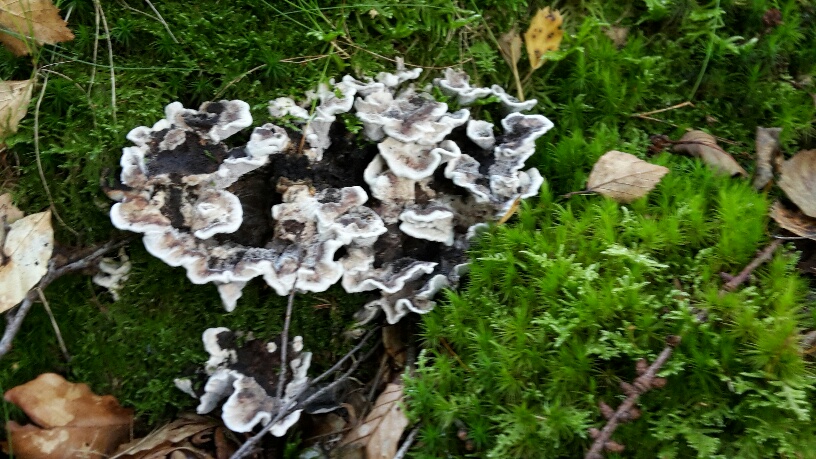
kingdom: Fungi
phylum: Basidiomycota
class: Agaricomycetes
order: Thelephorales
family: Thelephoraceae
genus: Phellodon
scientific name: Phellodon confluens
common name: pjaltet duftpigsvamp
